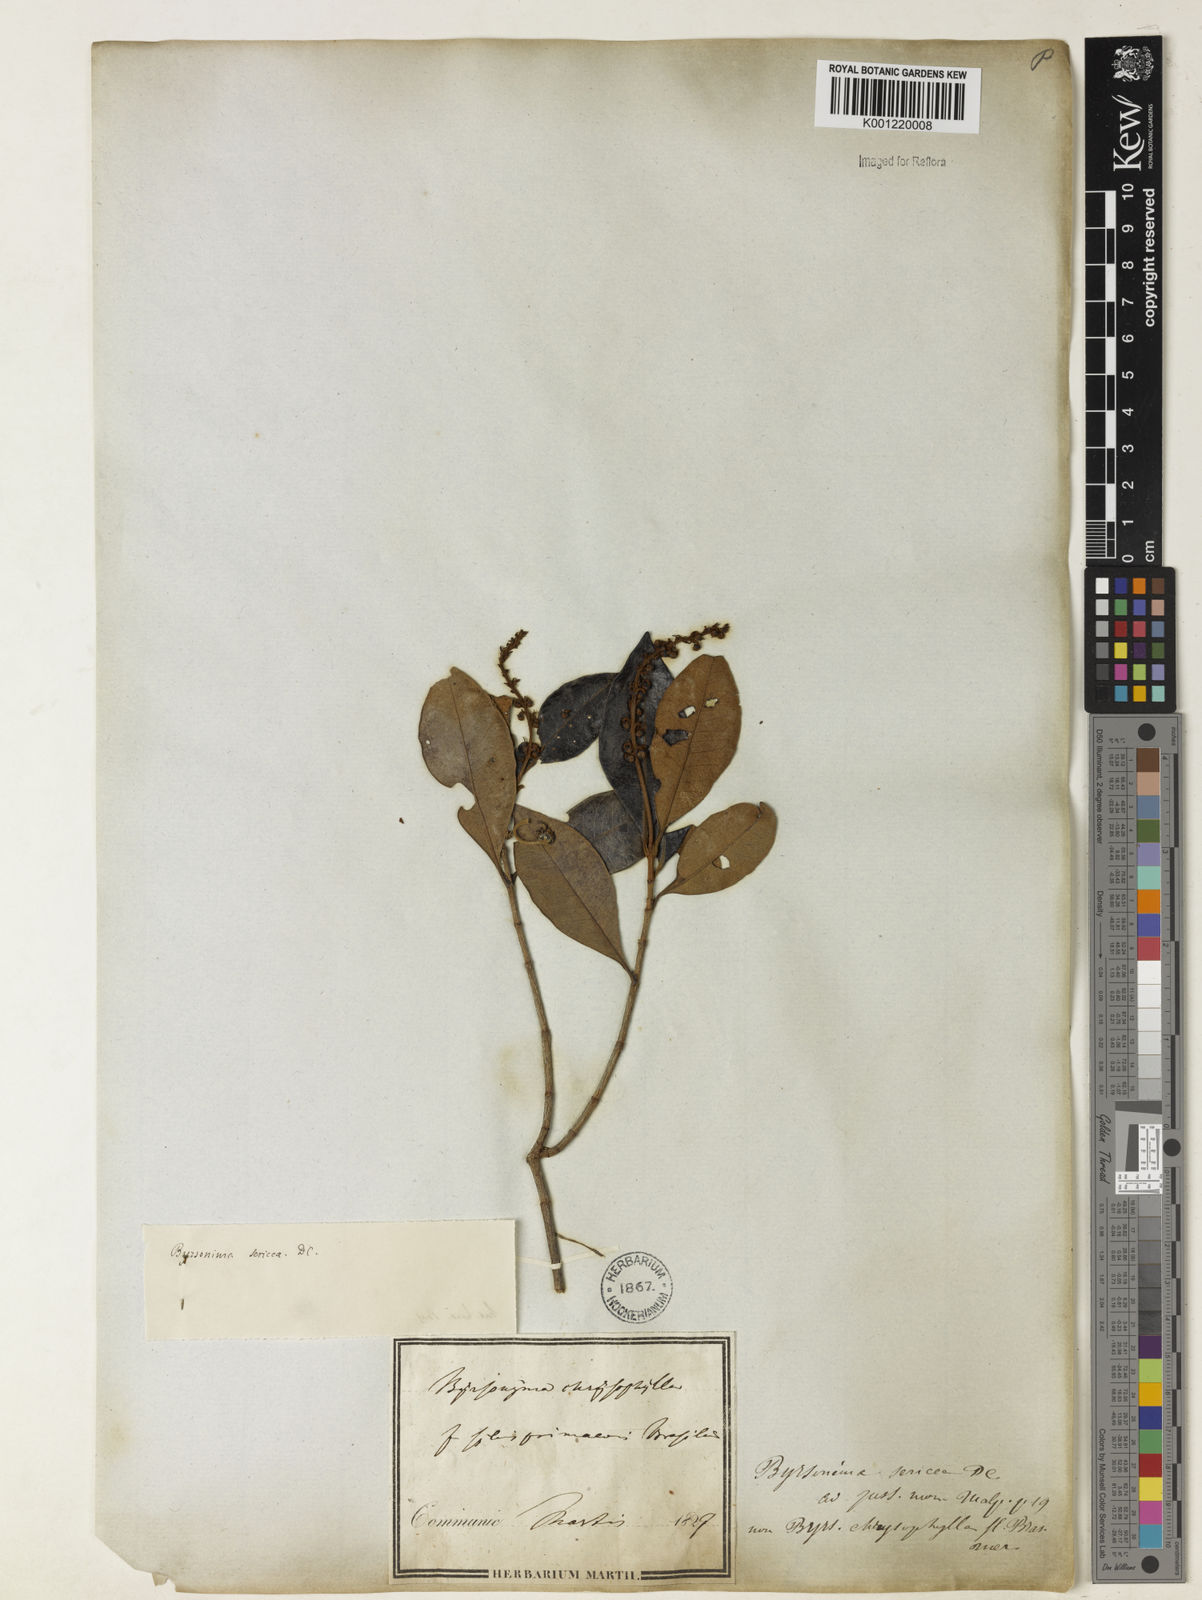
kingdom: Plantae
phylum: Tracheophyta
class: Magnoliopsida
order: Malpighiales
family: Malpighiaceae
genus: Byrsonima
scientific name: Byrsonima sericea
